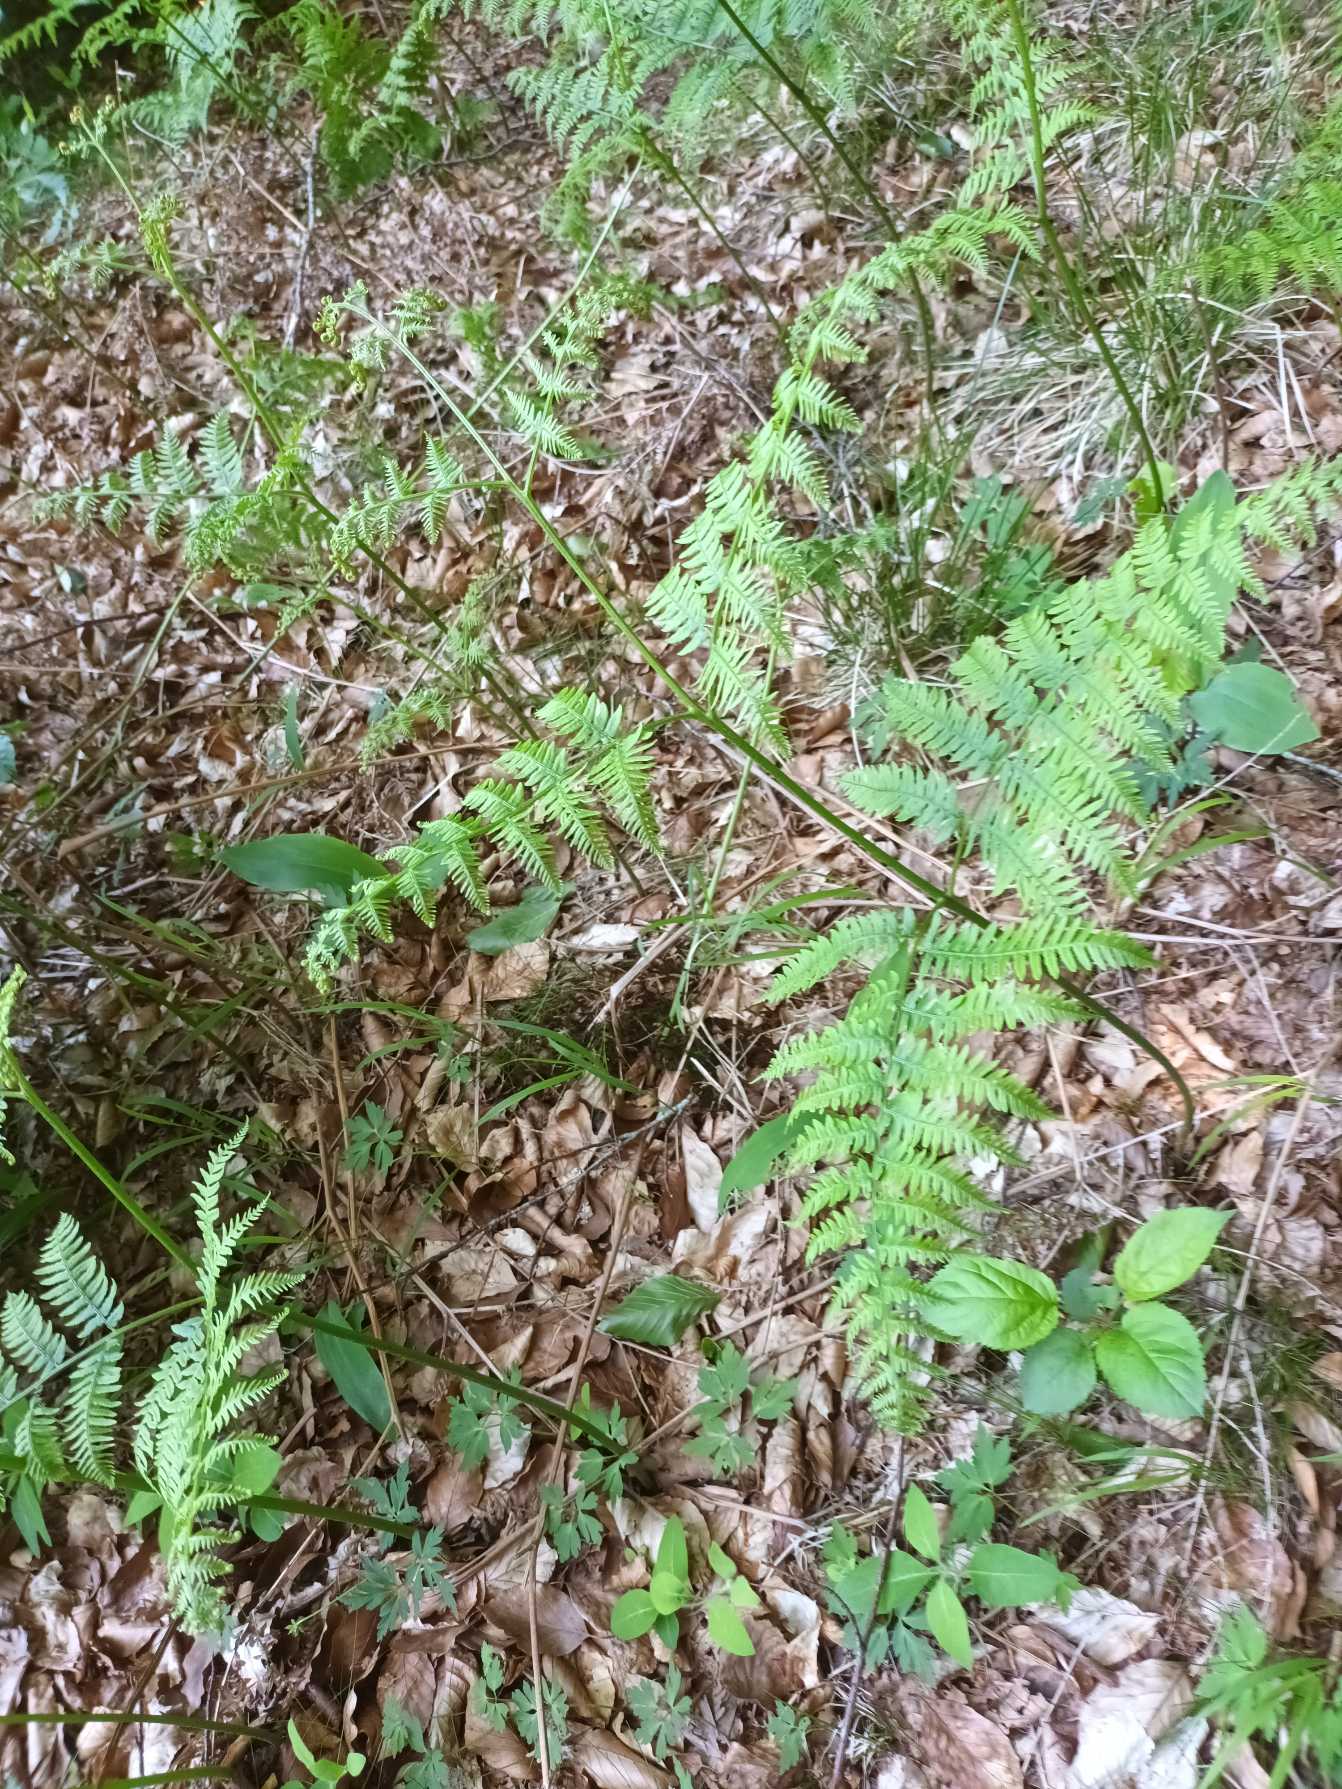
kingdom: Plantae
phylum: Tracheophyta
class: Polypodiopsida
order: Polypodiales
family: Dennstaedtiaceae
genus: Pteridium
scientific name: Pteridium aquilinum
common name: Ørnebregne
